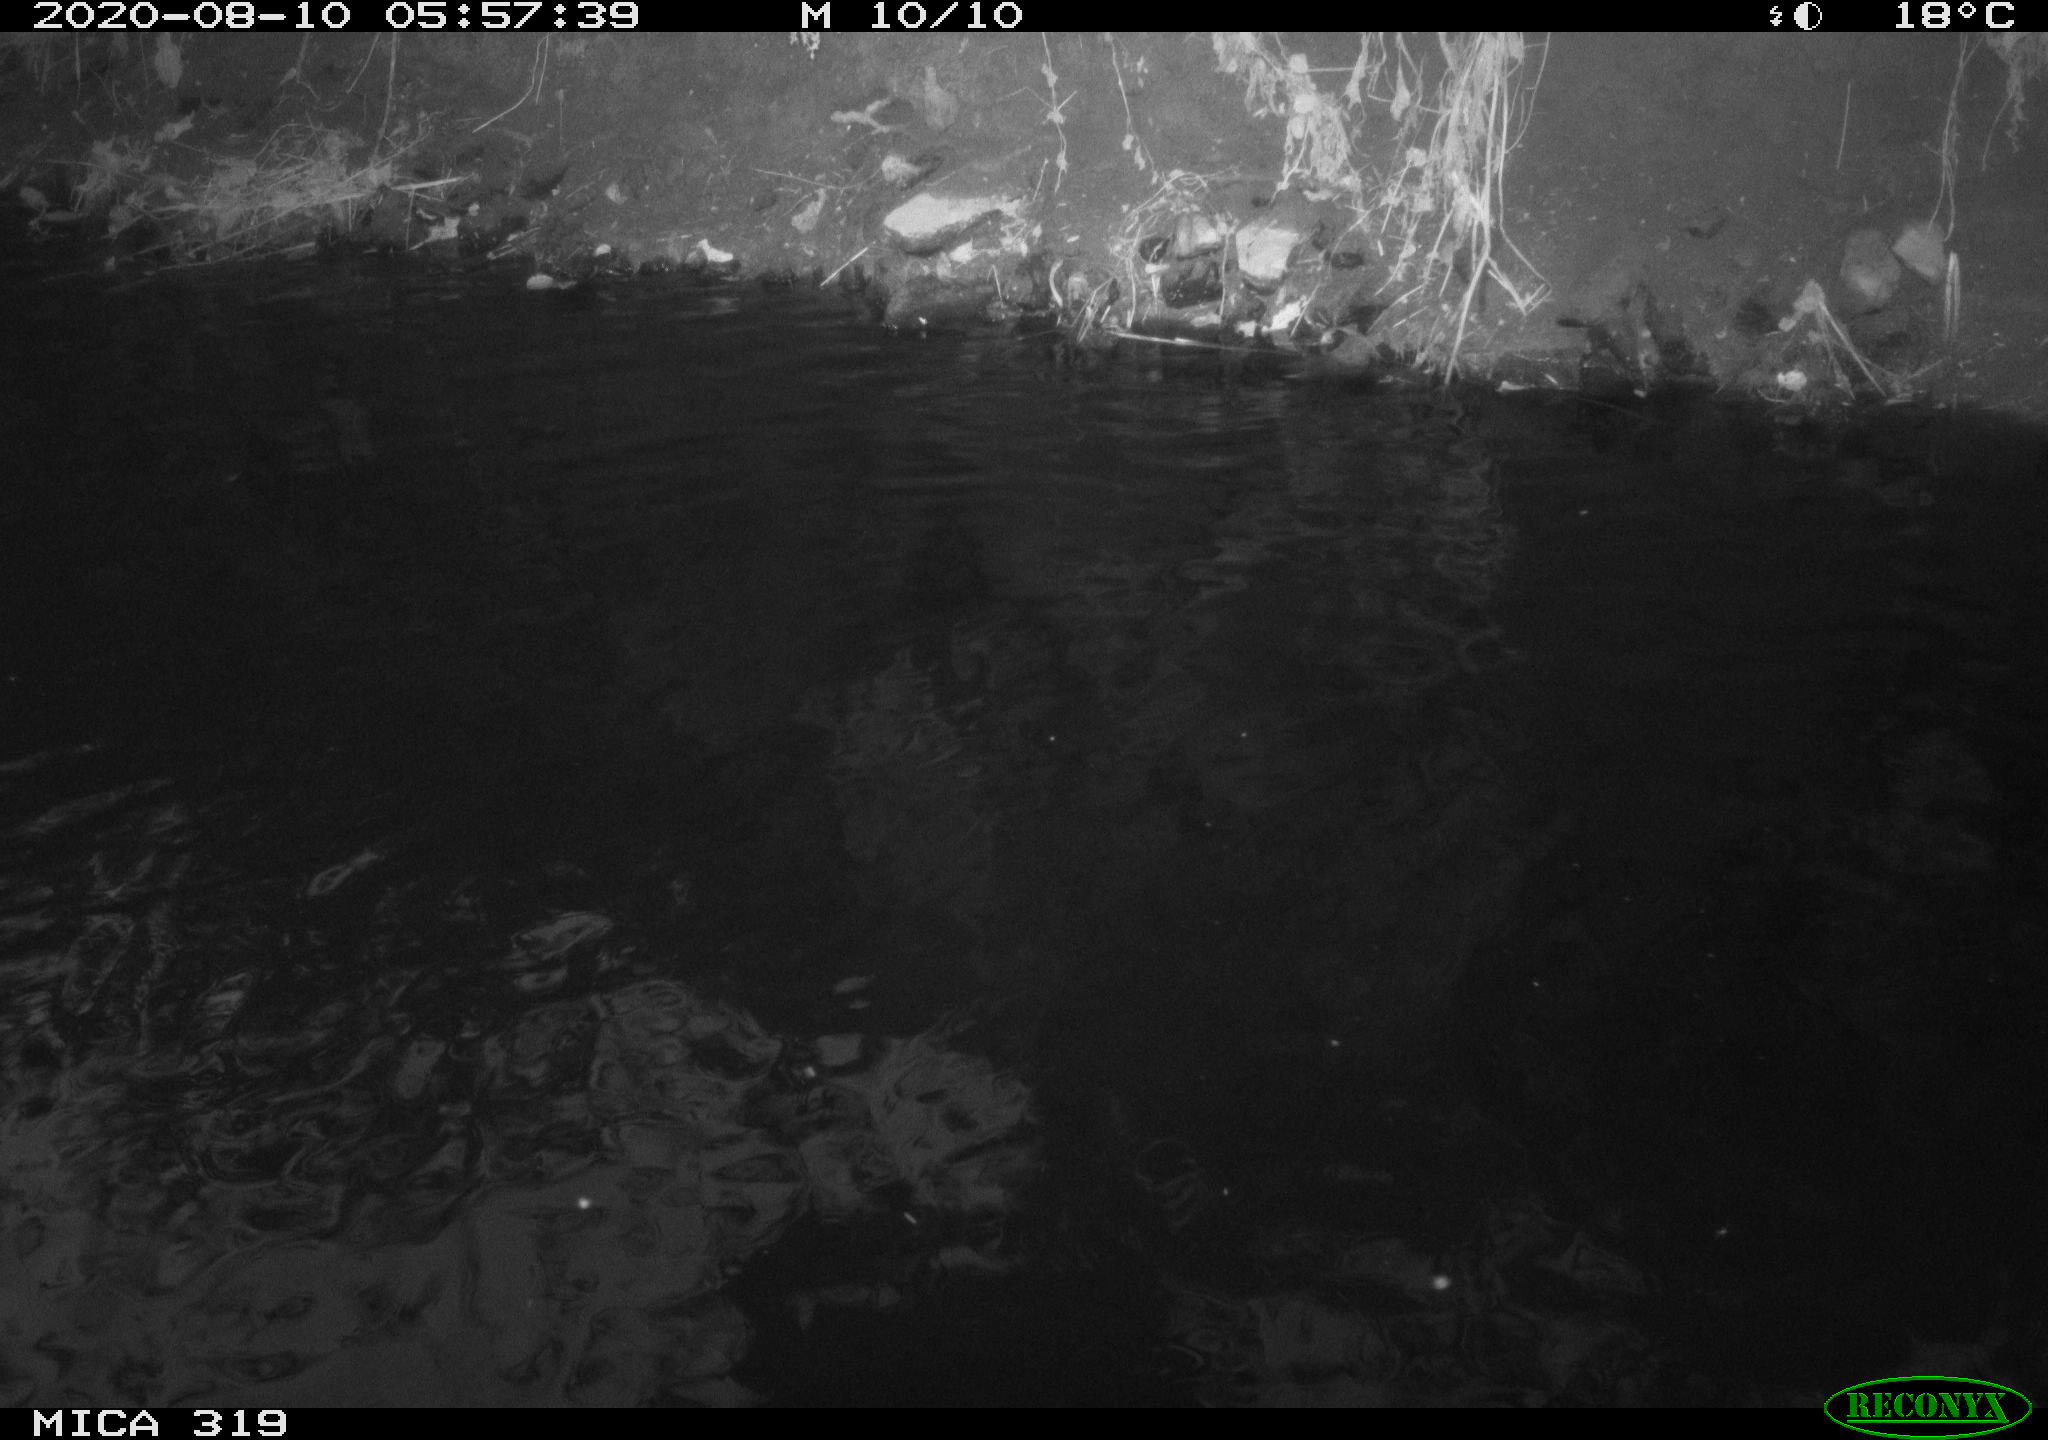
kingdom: Animalia
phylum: Chordata
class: Aves
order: Anseriformes
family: Anatidae
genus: Anas
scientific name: Anas platyrhynchos
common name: Mallard
